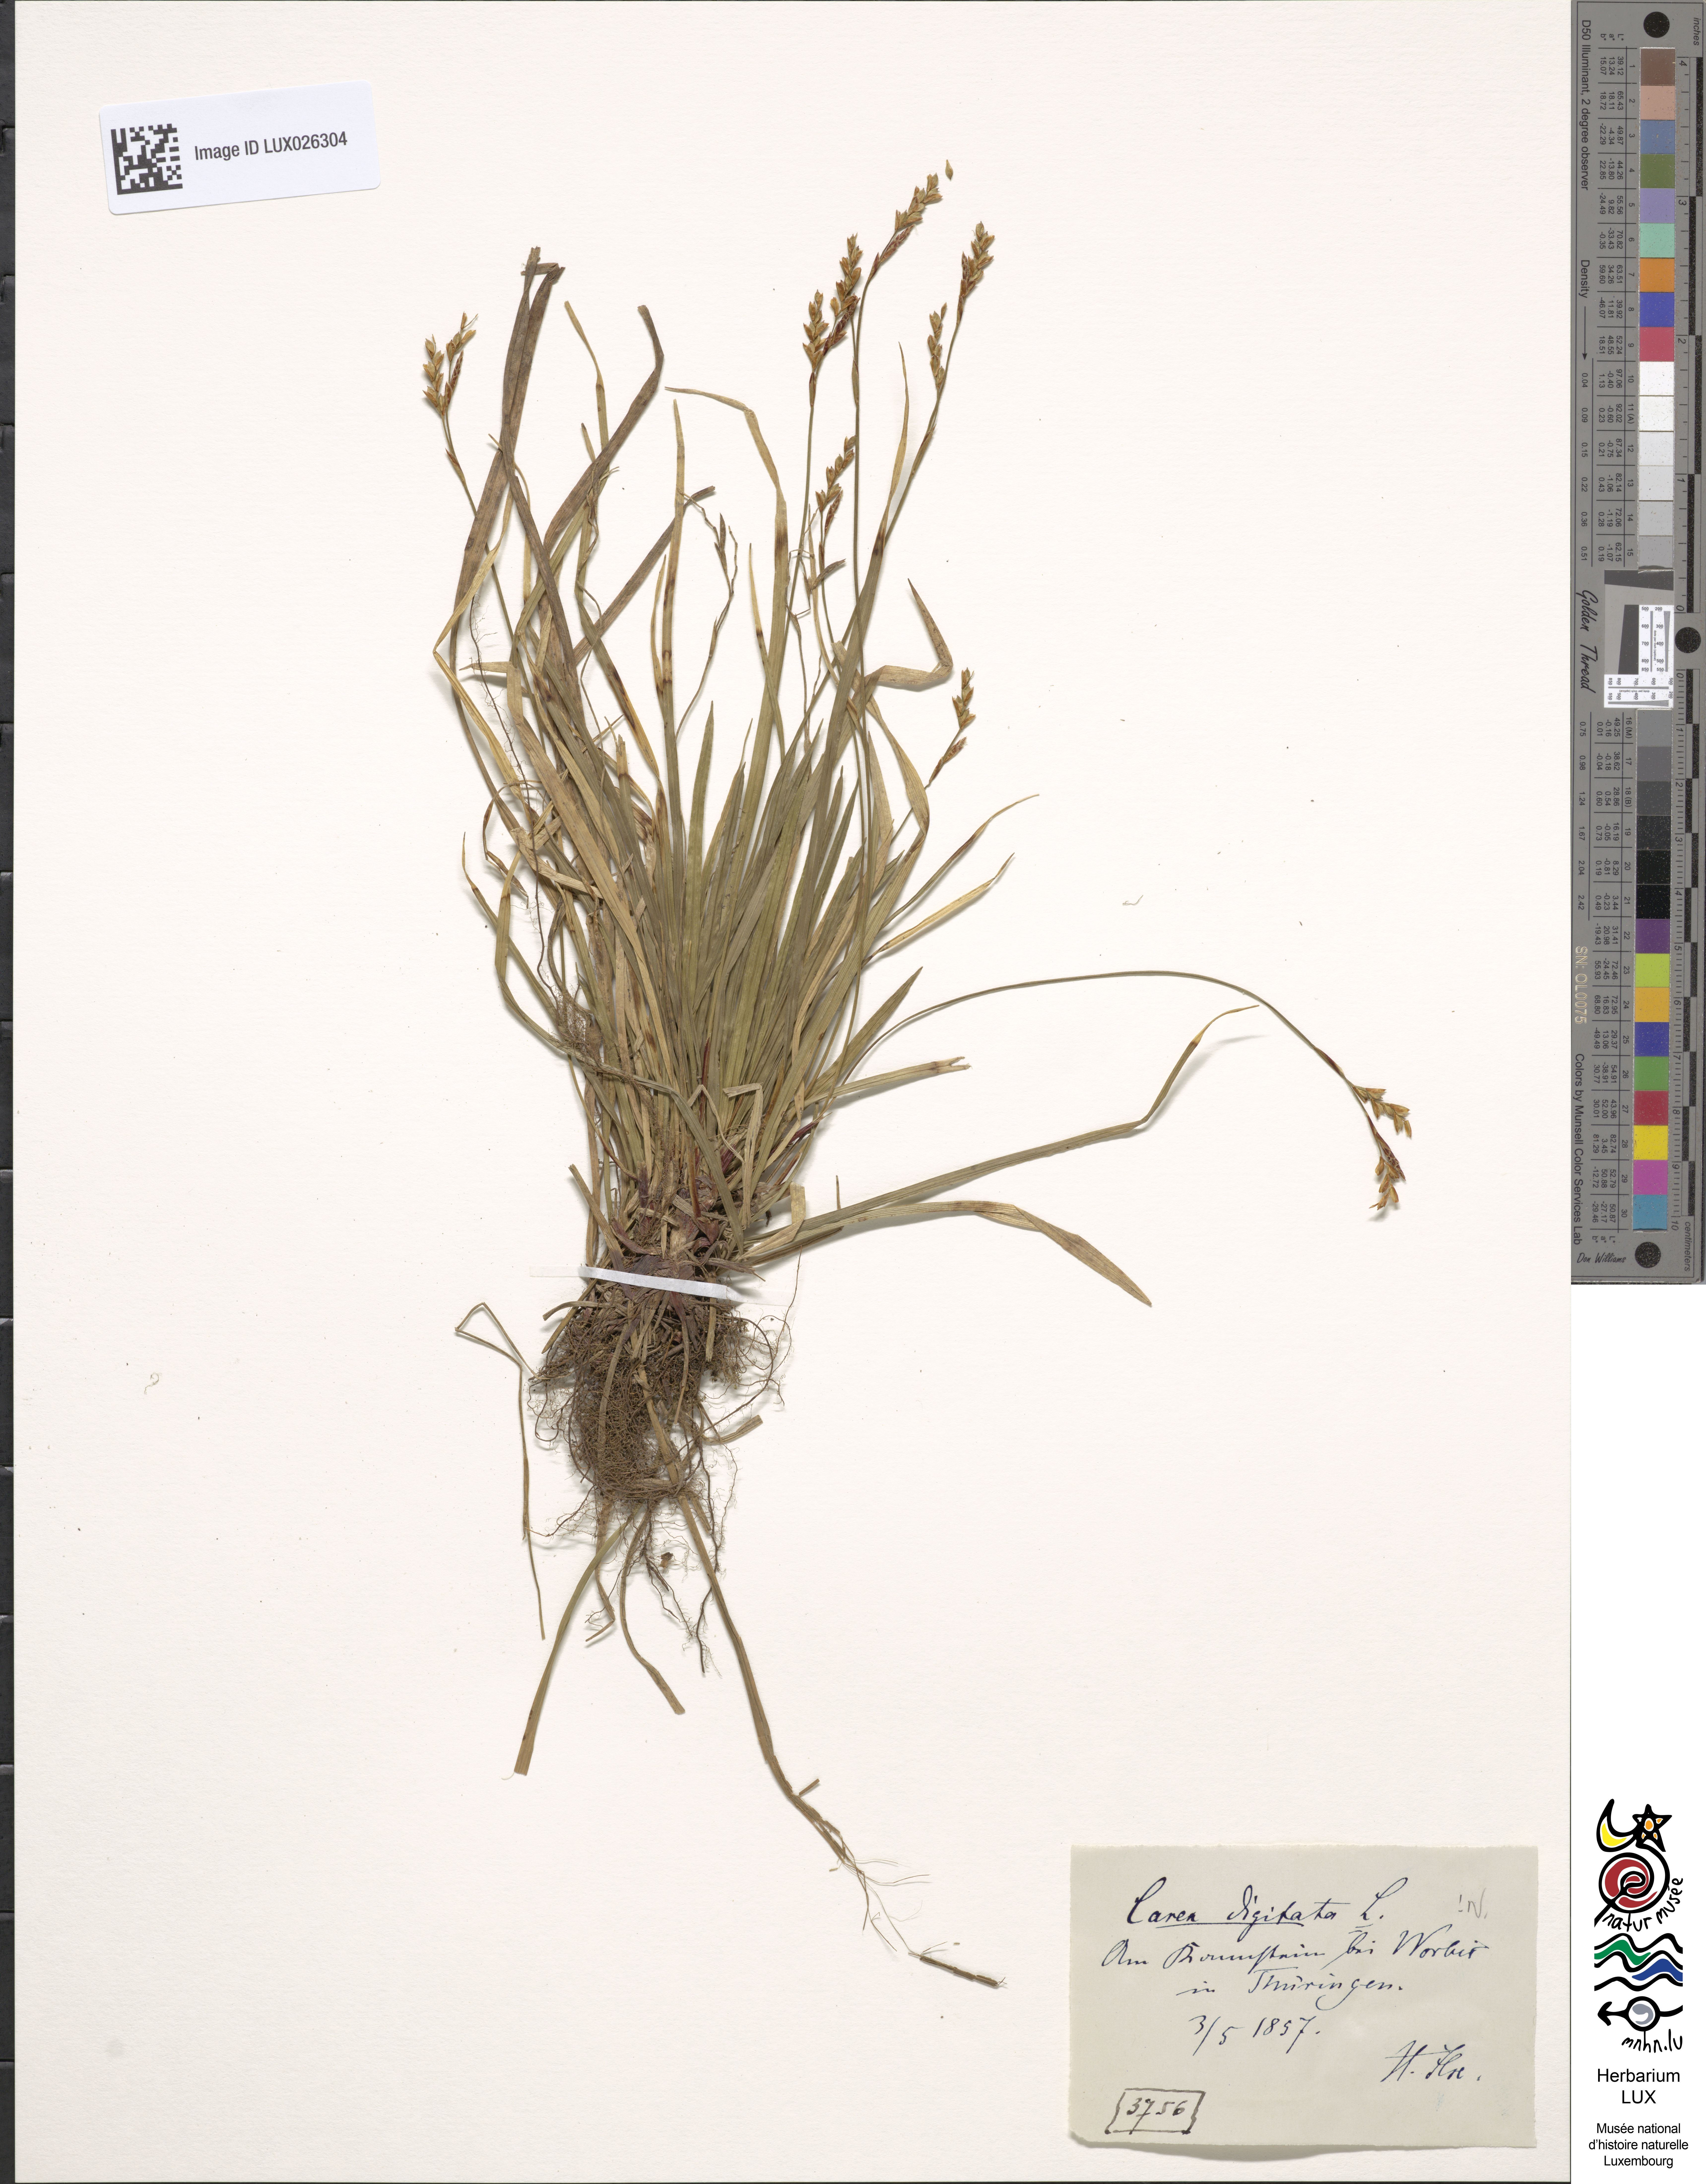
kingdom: Plantae
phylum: Tracheophyta
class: Liliopsida
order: Poales
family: Cyperaceae
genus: Carex
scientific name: Carex digitata
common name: Fingered sedge
